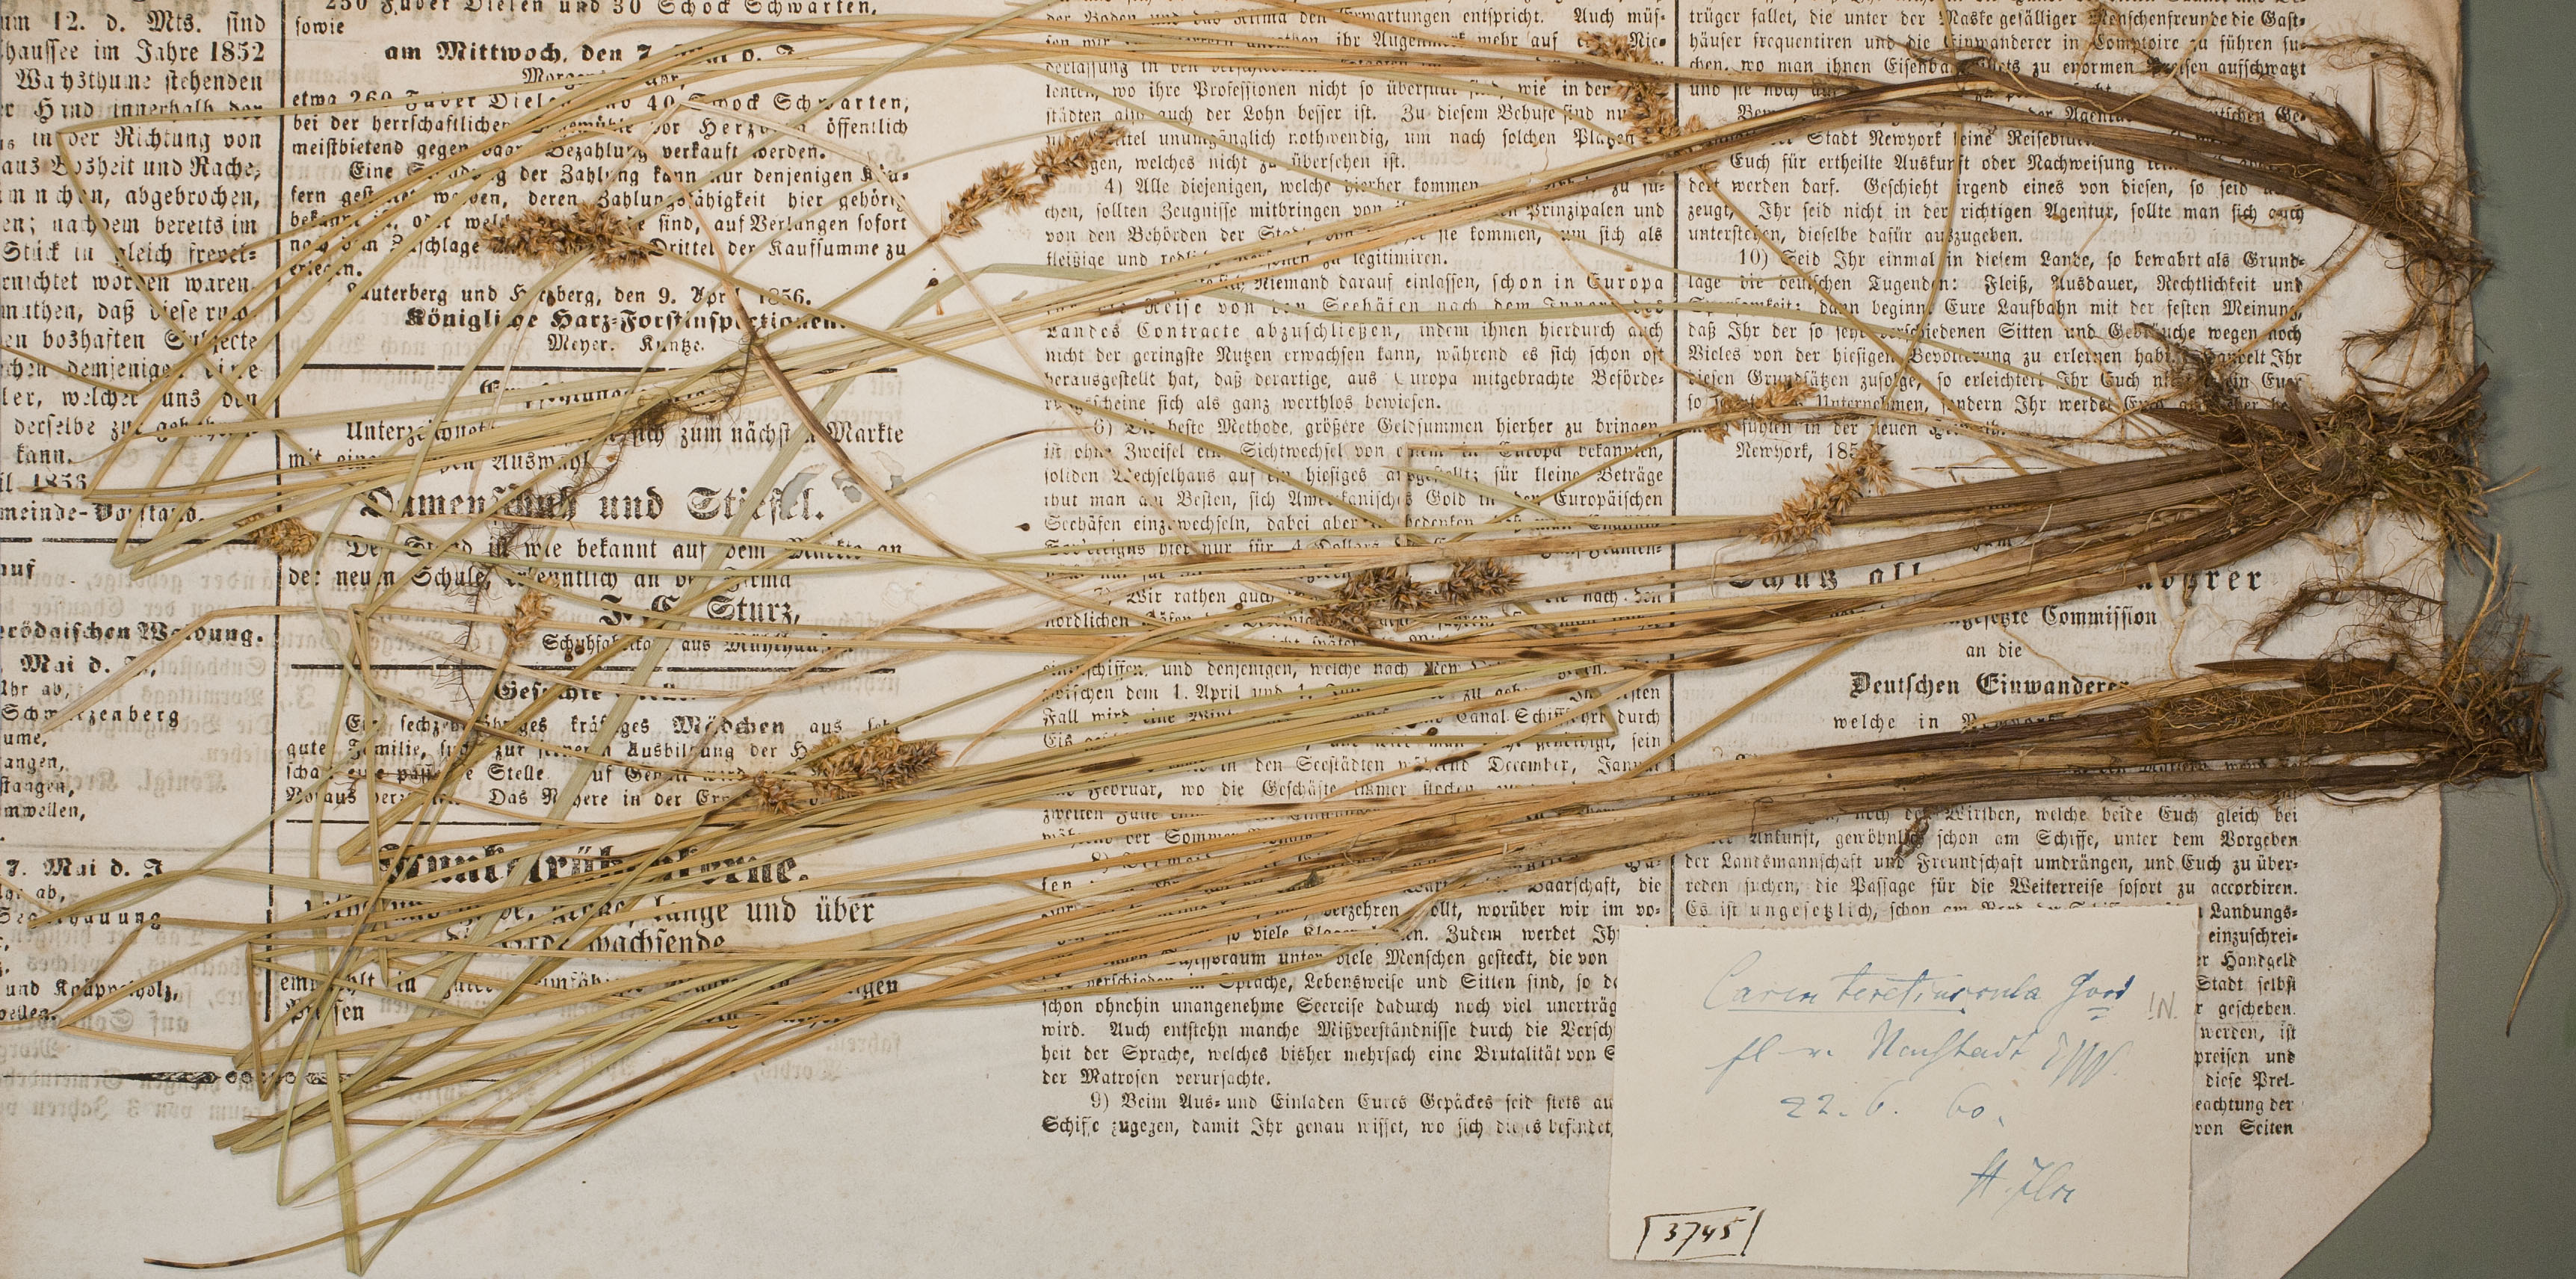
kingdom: Plantae
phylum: Tracheophyta
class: Liliopsida
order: Poales
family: Cyperaceae
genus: Carex
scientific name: Carex diandra
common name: Lesser tussock-sedge
